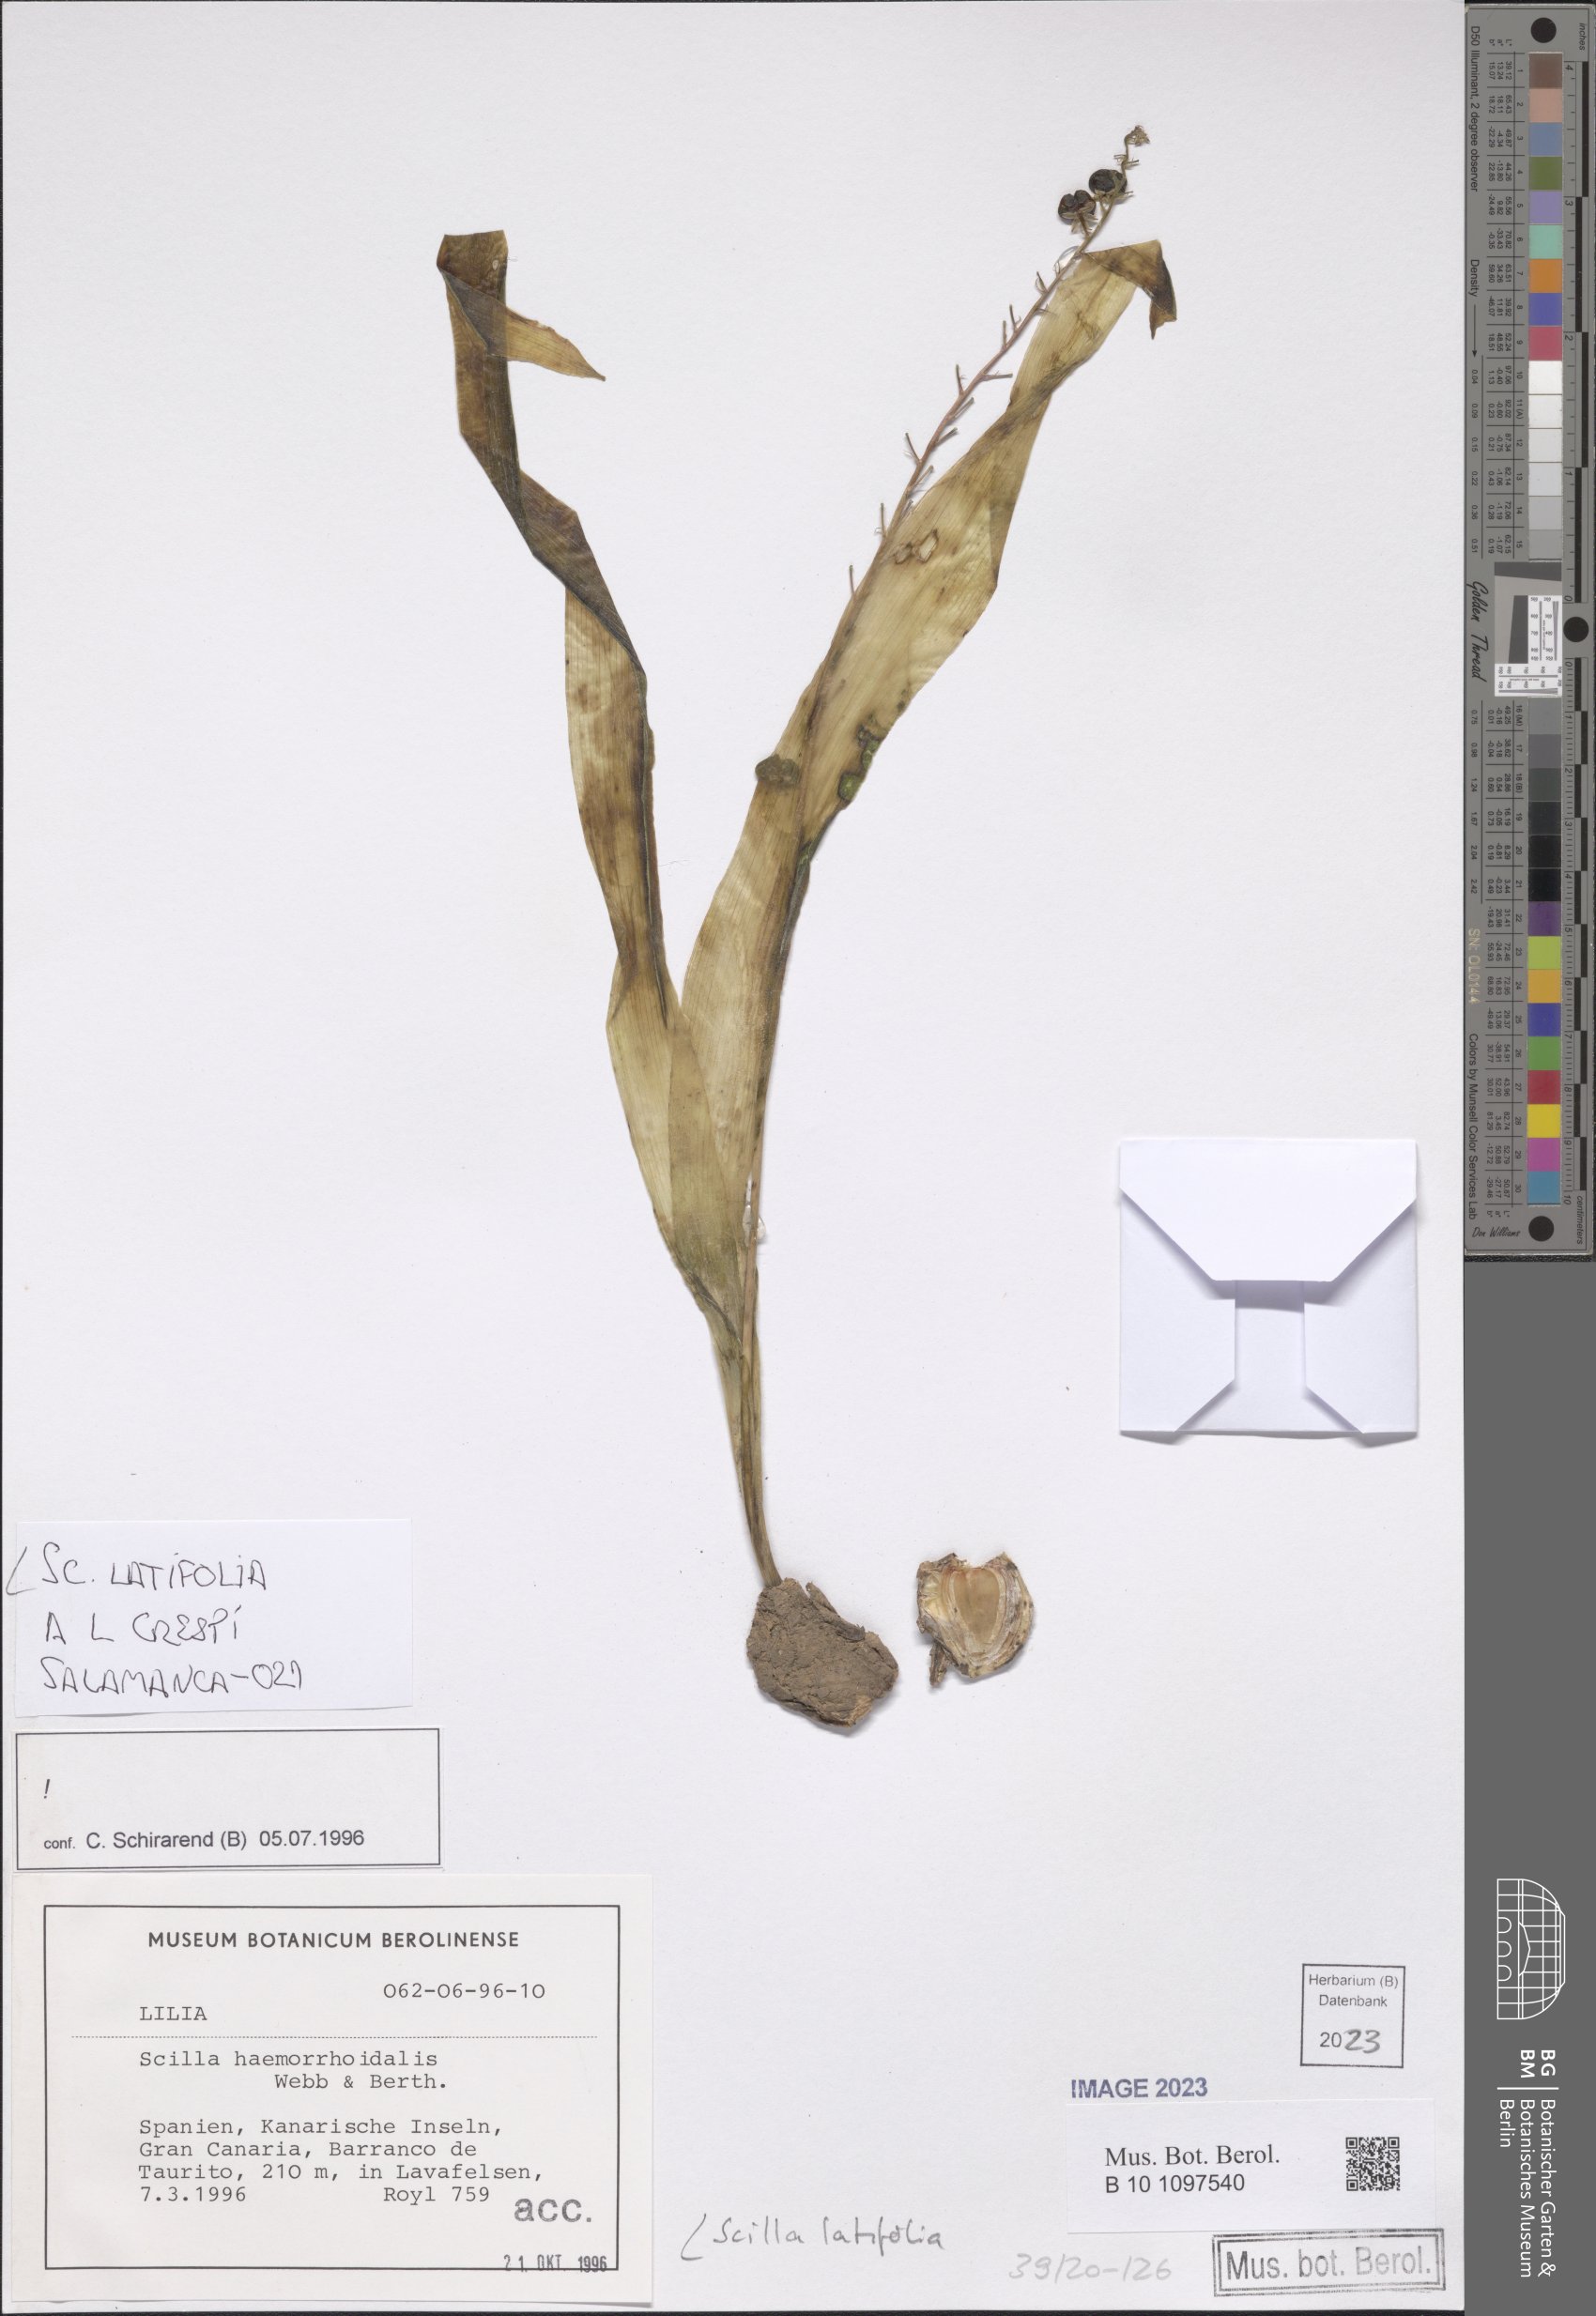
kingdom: Plantae
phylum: Tracheophyta
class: Liliopsida
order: Asparagales
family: Asparagaceae
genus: Scilla
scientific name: Scilla latifolia
